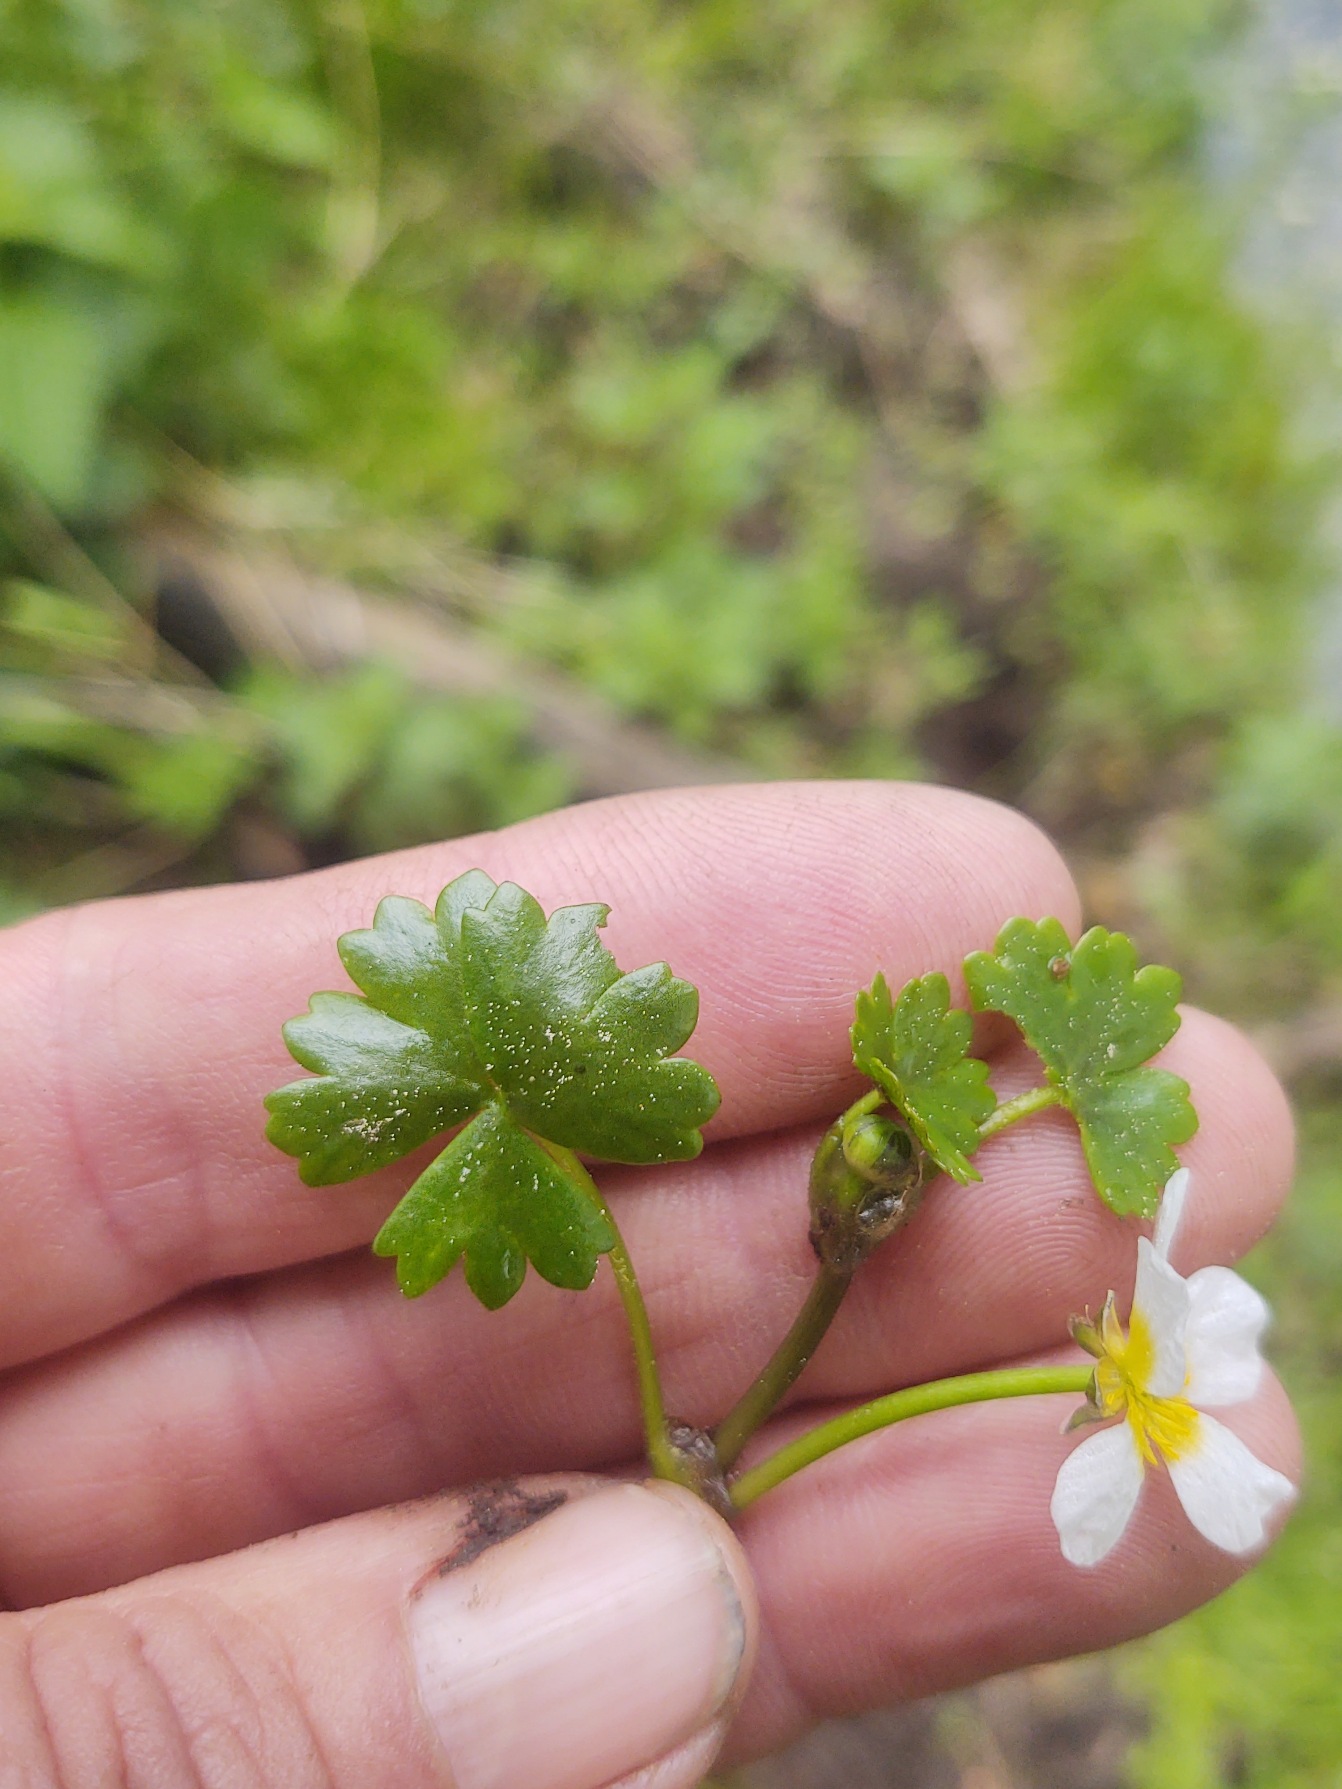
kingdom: Plantae
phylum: Tracheophyta
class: Magnoliopsida
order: Ranunculales
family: Ranunculaceae
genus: Ranunculus
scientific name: Ranunculus aquatilis
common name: Almindelig vandranunkel
